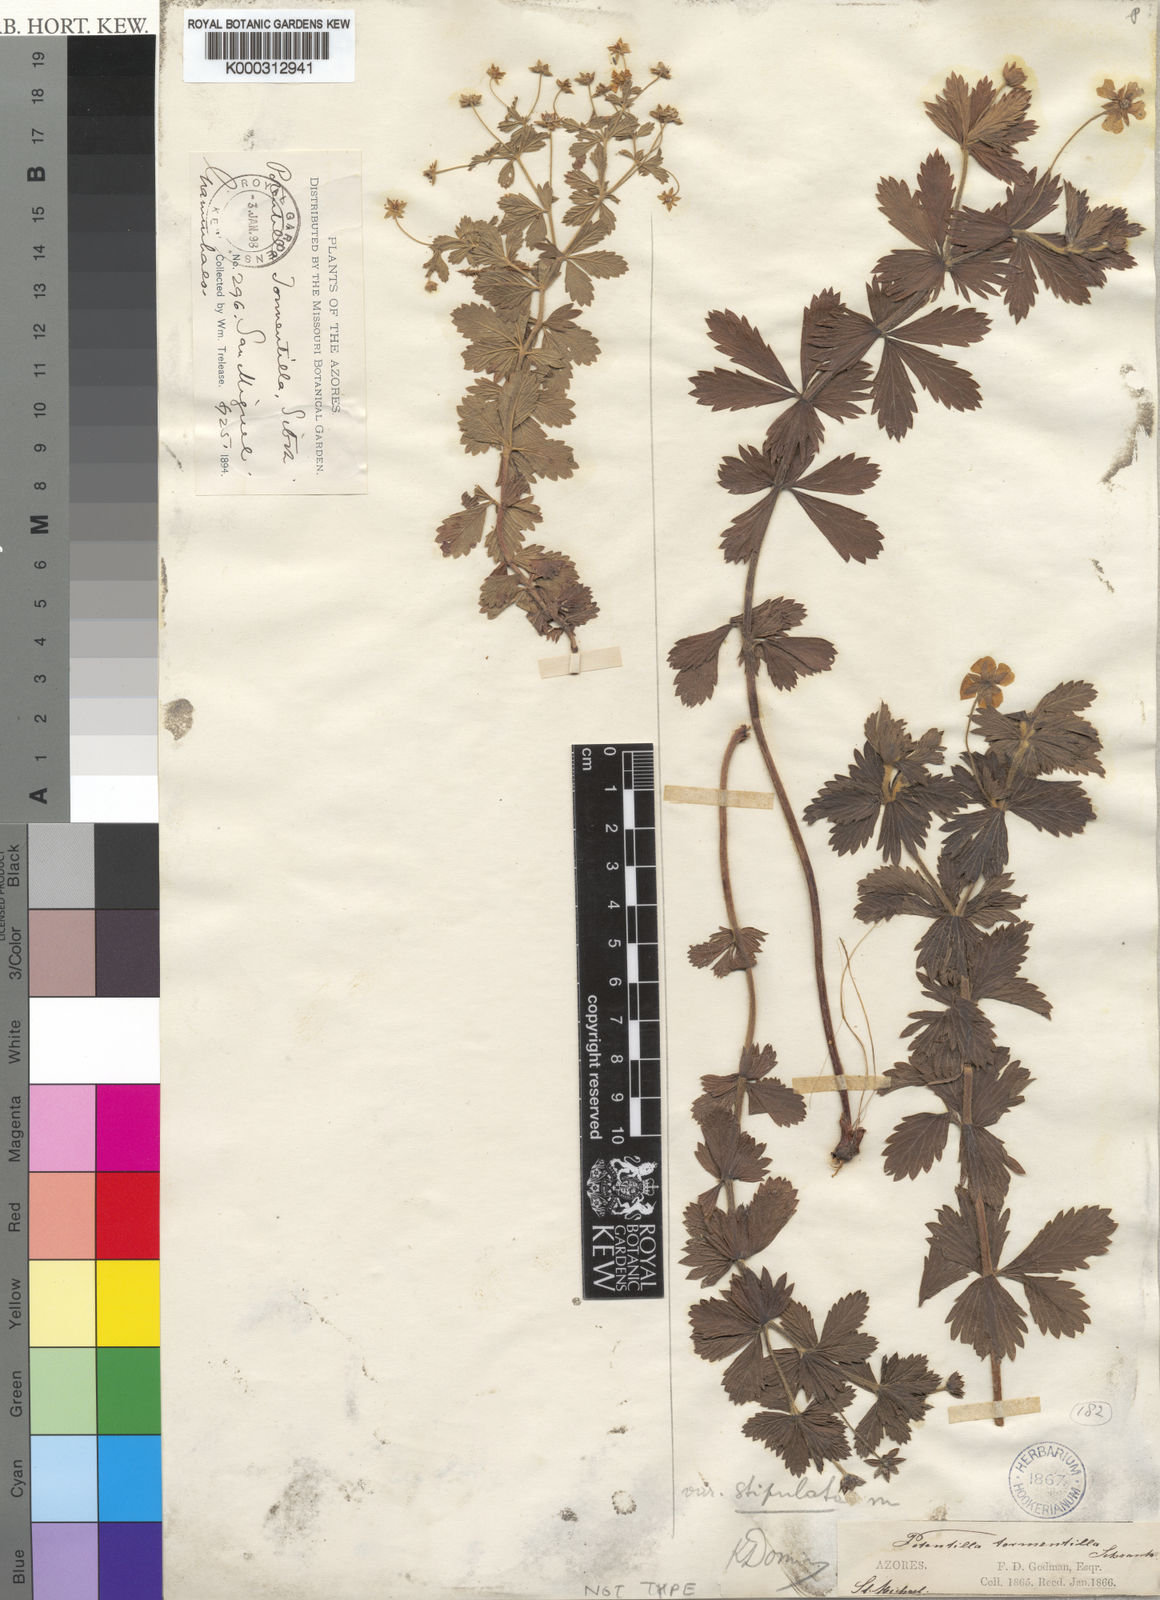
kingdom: Plantae
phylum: Tracheophyta
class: Magnoliopsida
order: Rosales
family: Rosaceae
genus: Potentilla
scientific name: Potentilla
